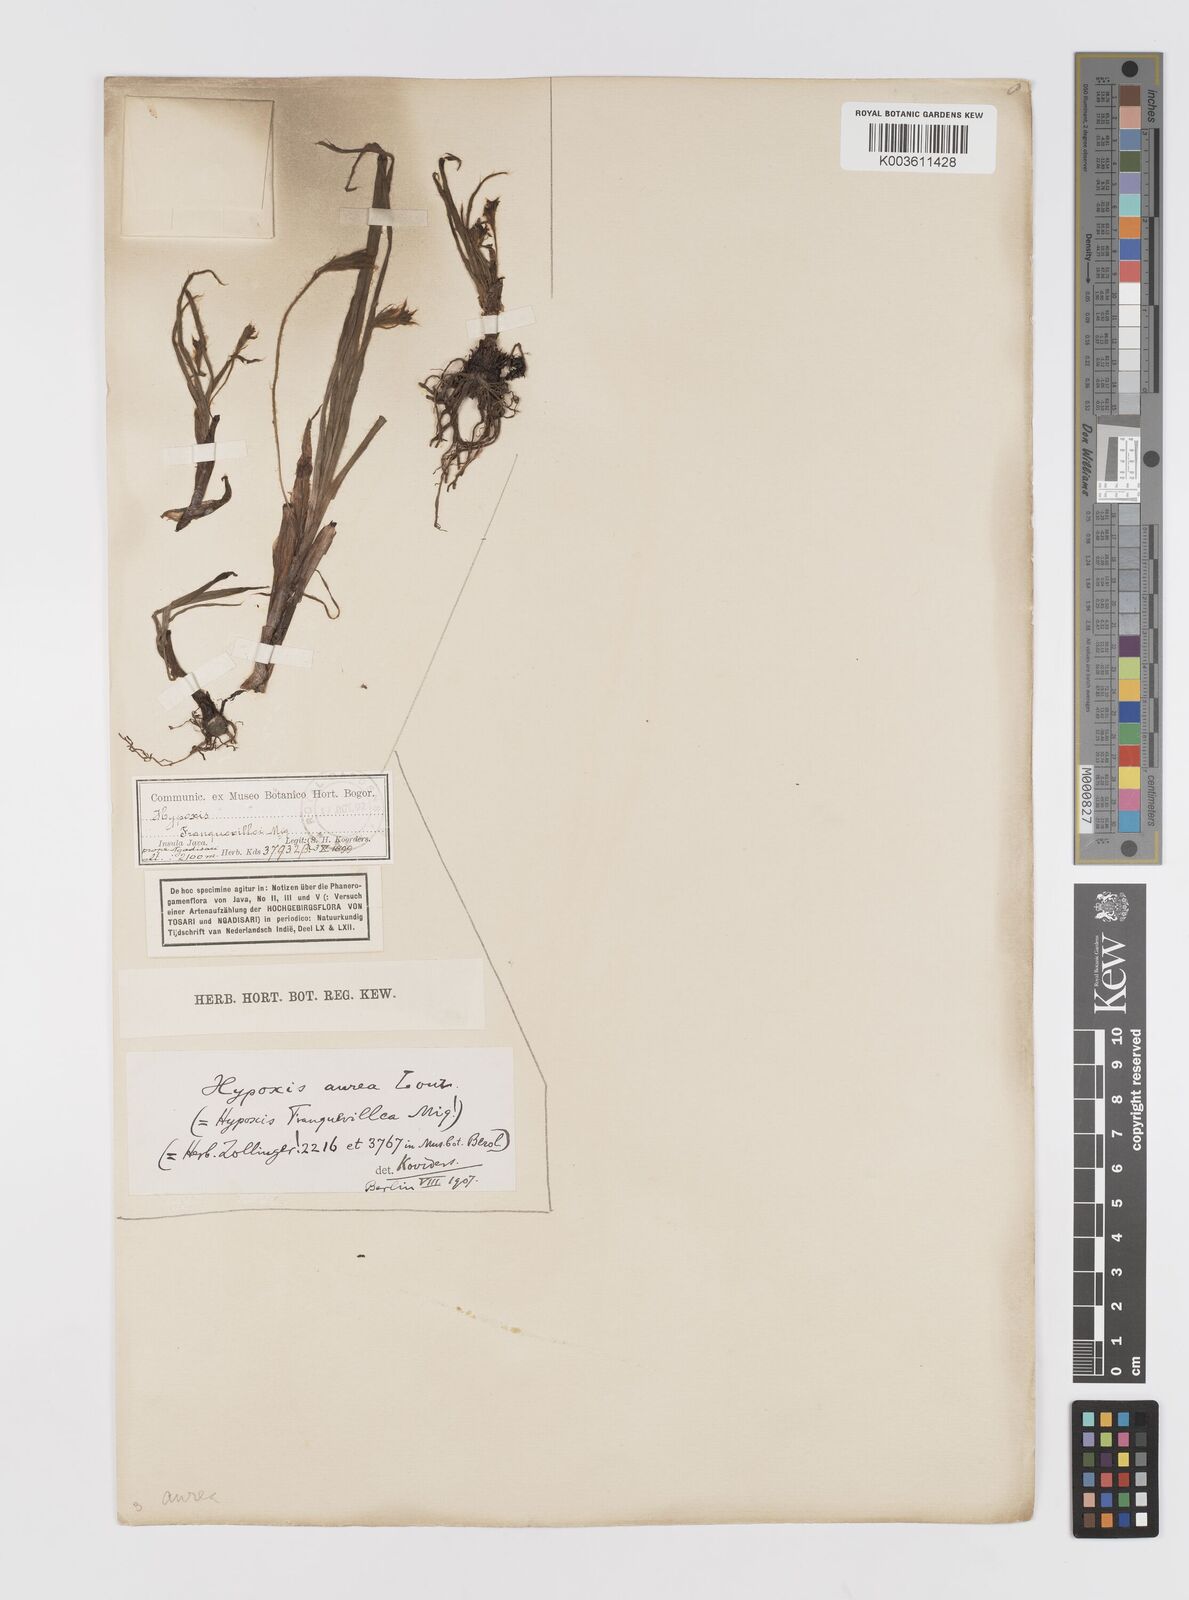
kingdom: Plantae
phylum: Tracheophyta
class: Liliopsida
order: Asparagales
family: Hypoxidaceae
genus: Hypoxis
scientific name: Hypoxis aurea
